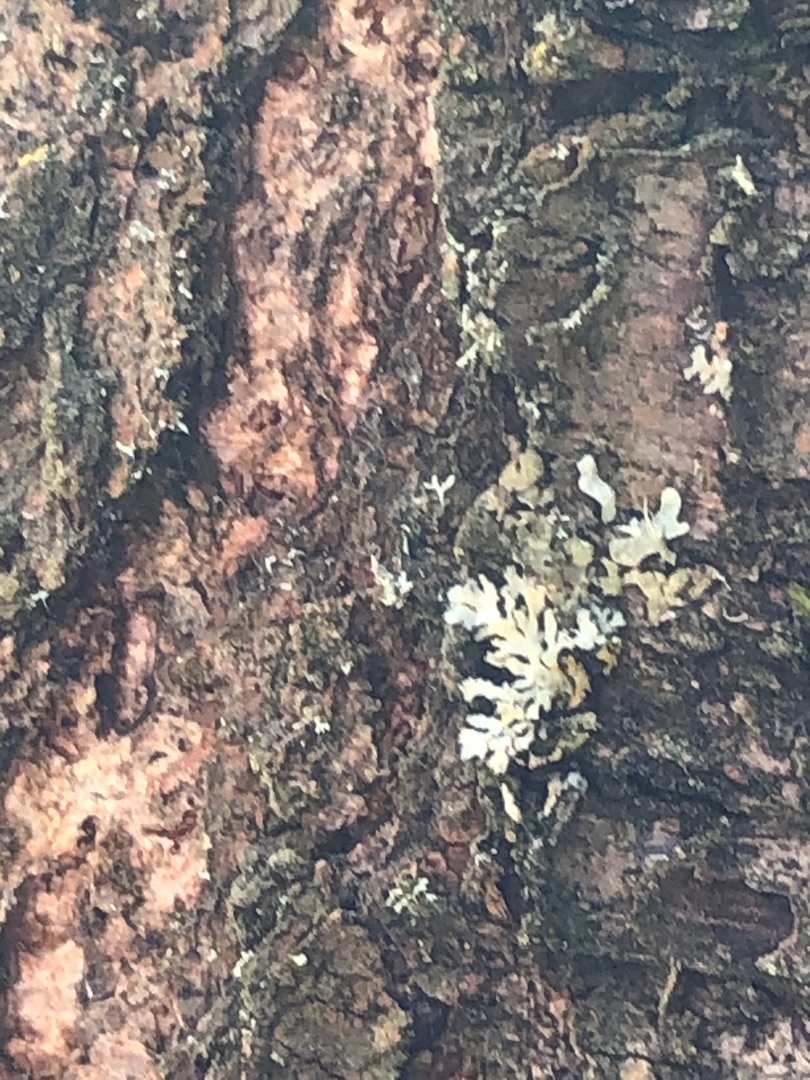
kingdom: Fungi
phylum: Ascomycota
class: Lecanoromycetes
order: Lecanorales
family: Parmeliaceae
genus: Parmelia
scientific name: Parmelia sulcata
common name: Rynket skållav
